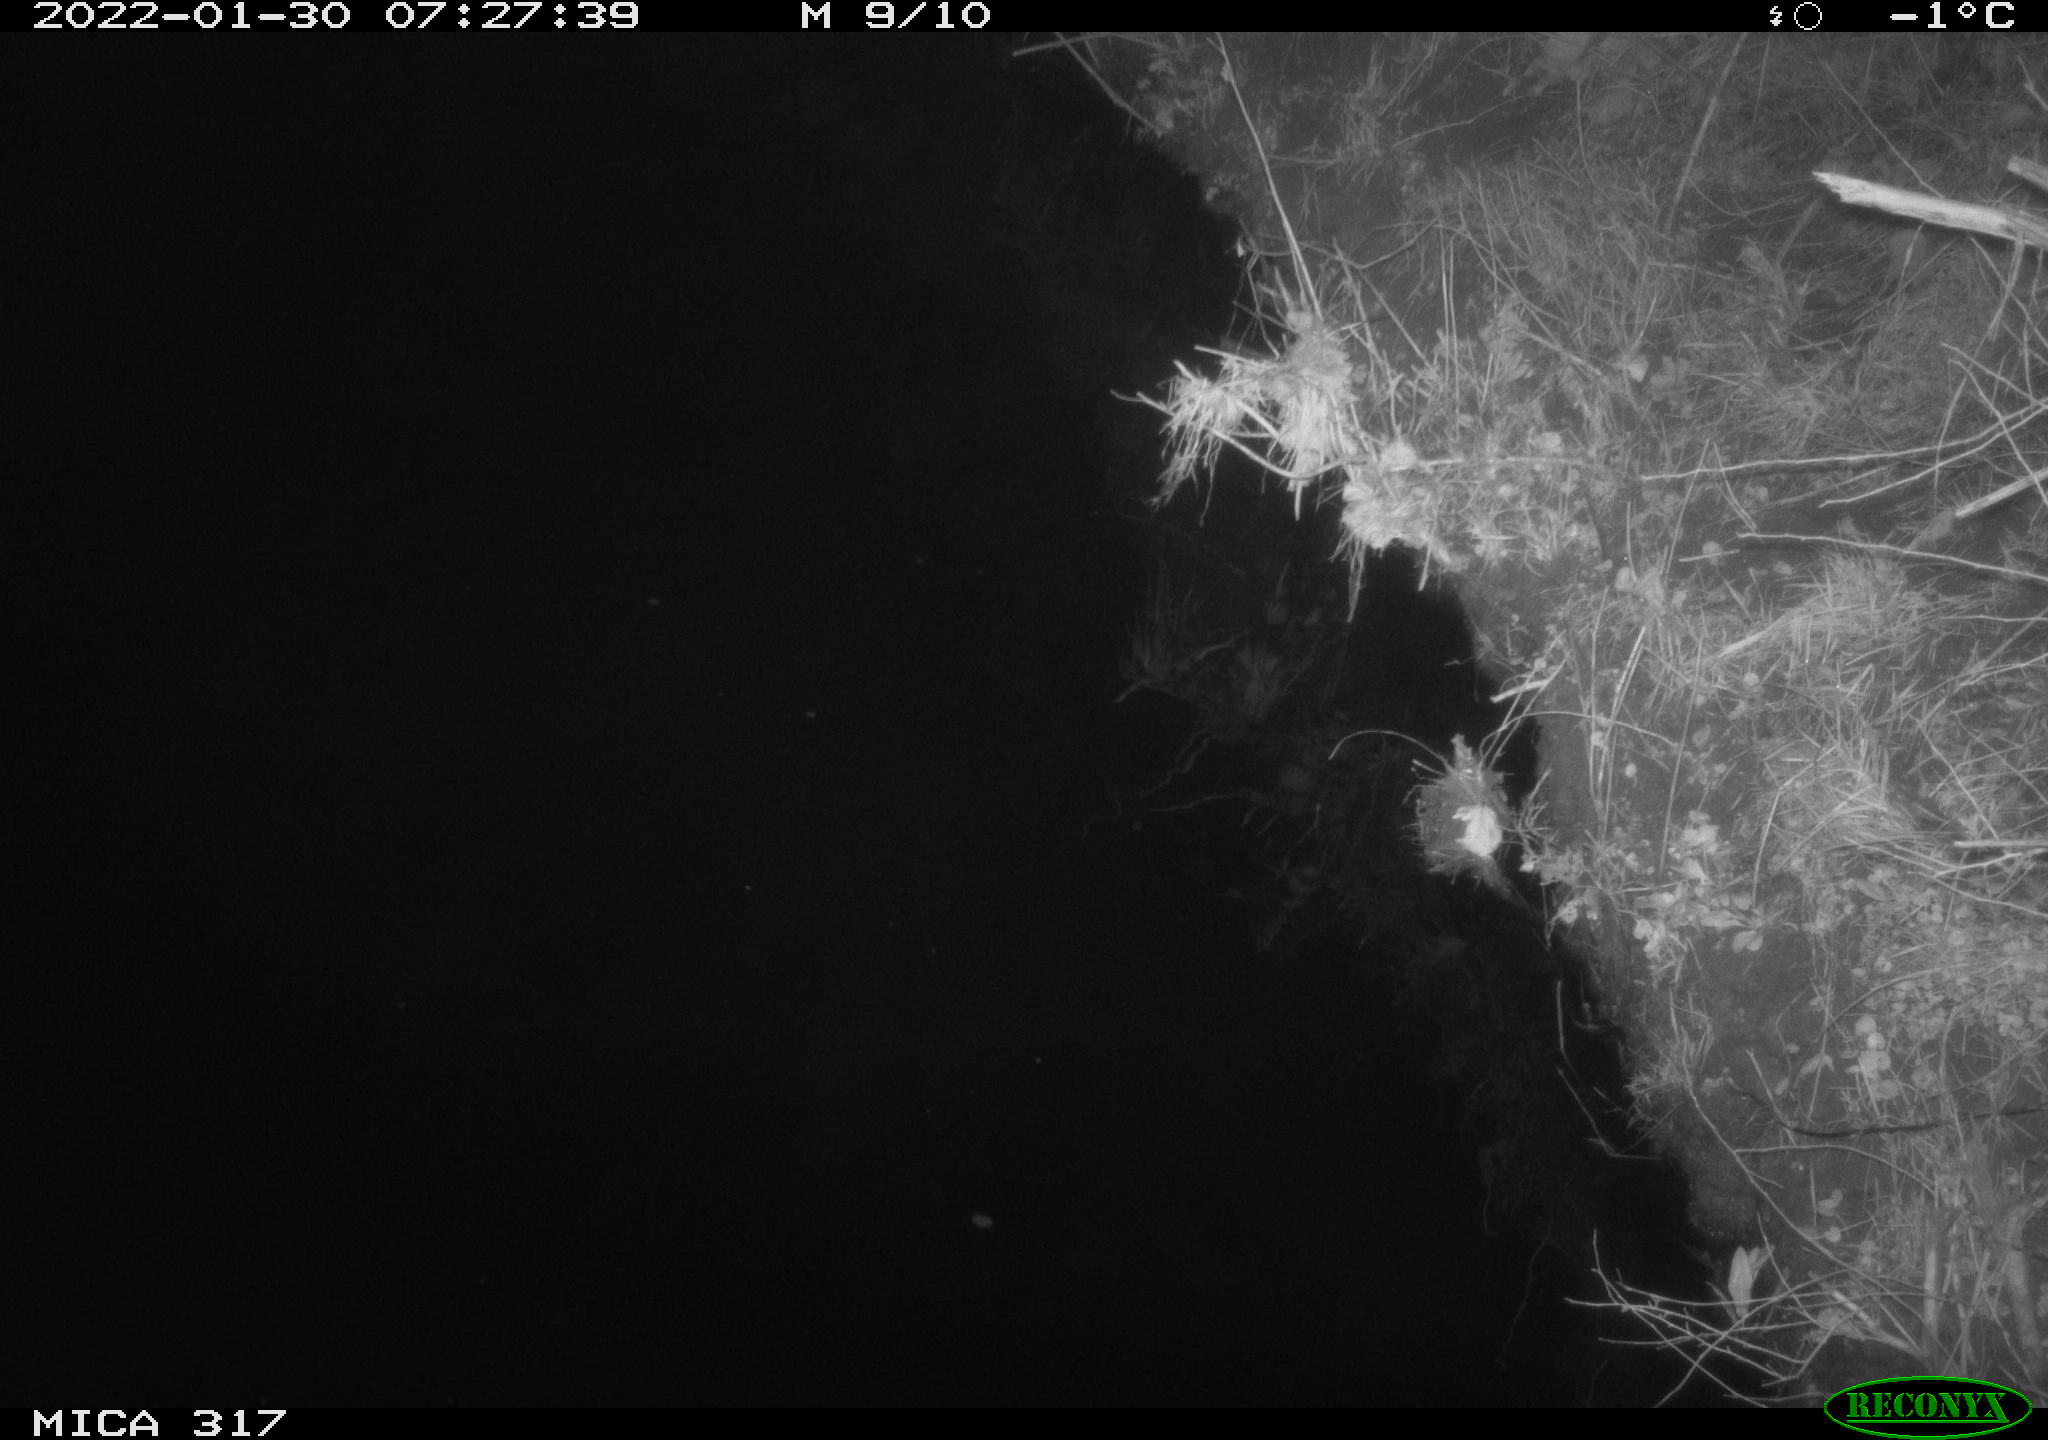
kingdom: Animalia
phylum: Chordata
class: Aves
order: Anseriformes
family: Anatidae
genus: Anas
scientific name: Anas platyrhynchos
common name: Mallard
